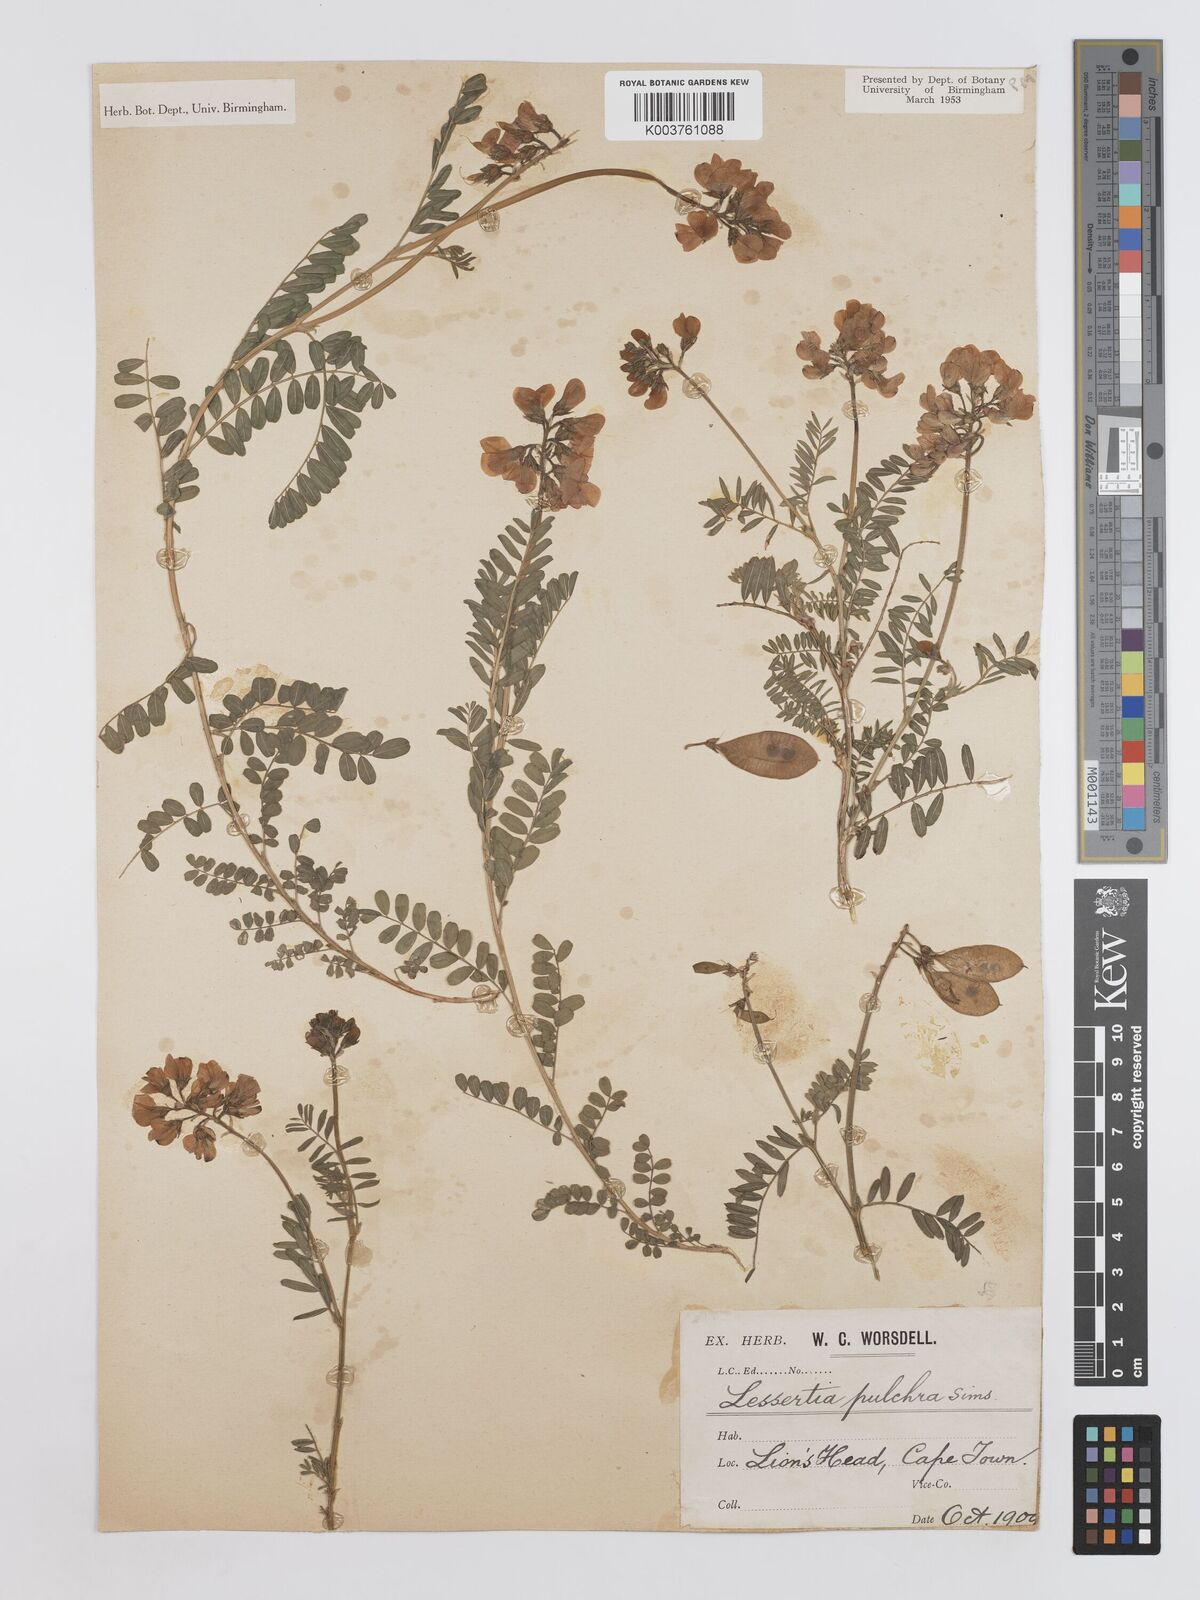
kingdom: Plantae
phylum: Tracheophyta
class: Magnoliopsida
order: Fabales
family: Fabaceae
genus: Lessertia
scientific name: Lessertia capensis
